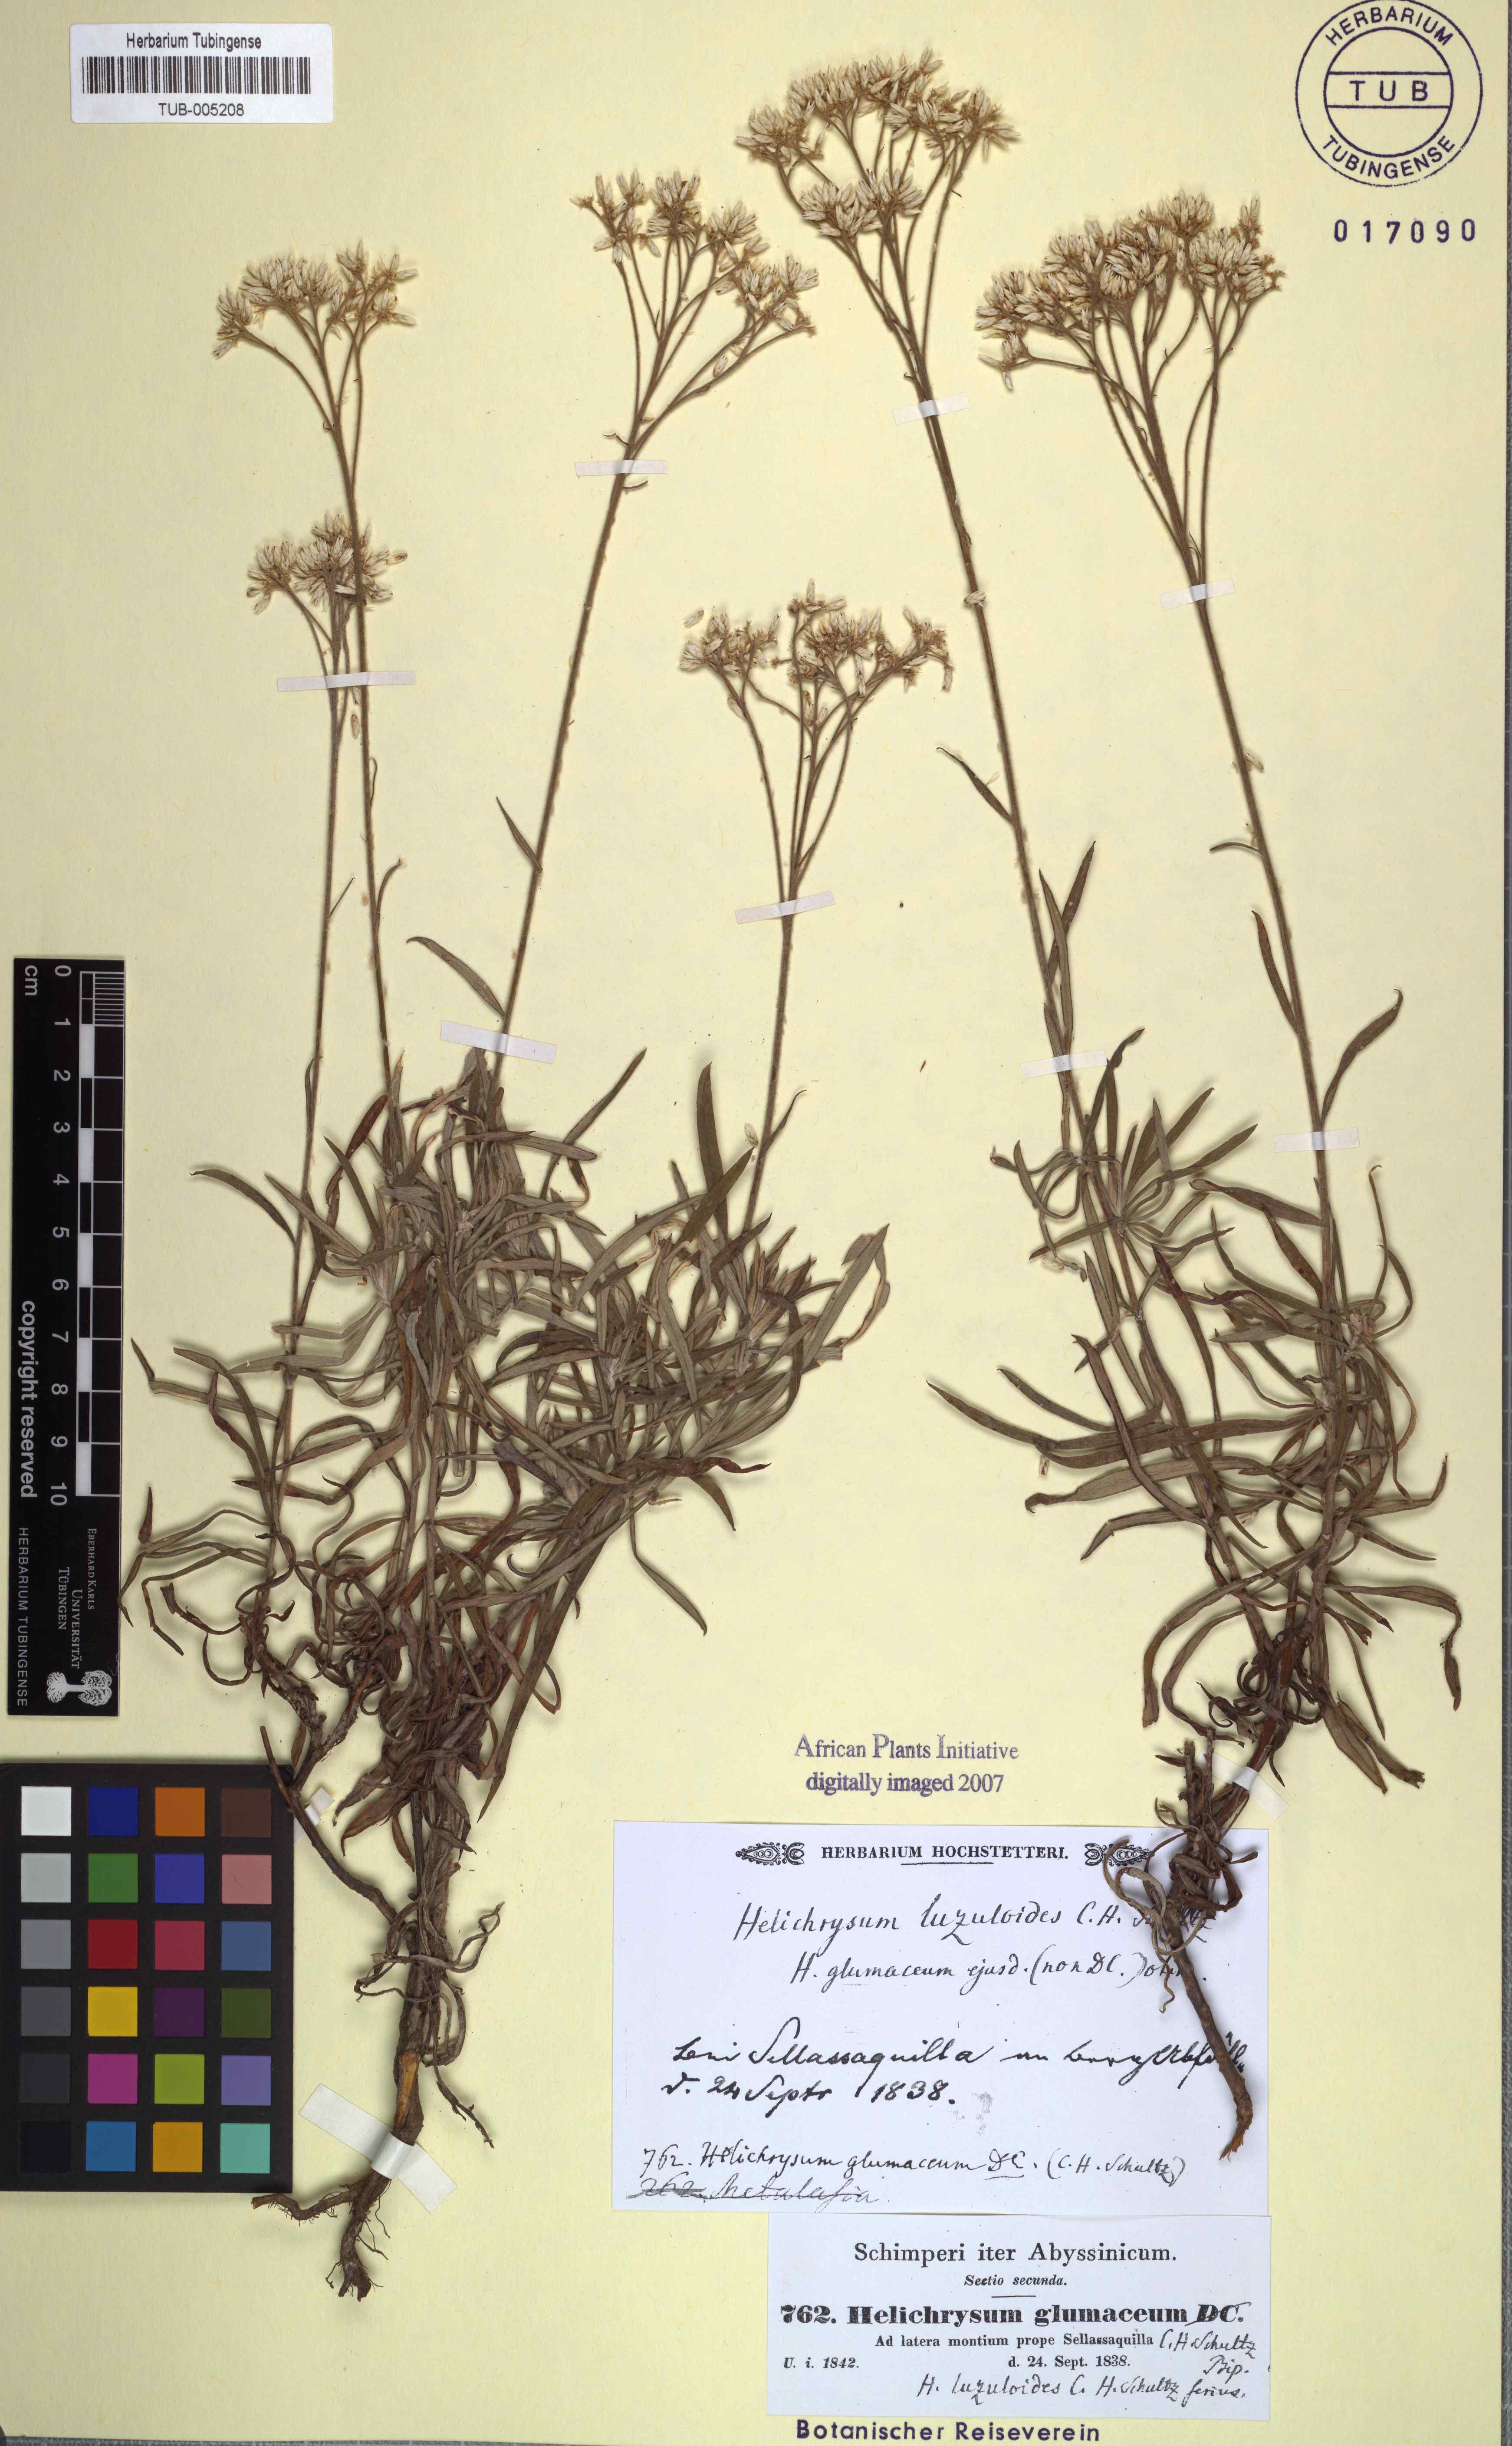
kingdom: Plantae
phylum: Tracheophyta
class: Magnoliopsida
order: Asterales
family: Asteraceae
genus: Helichrysum
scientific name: Helichrysum glumaceum
